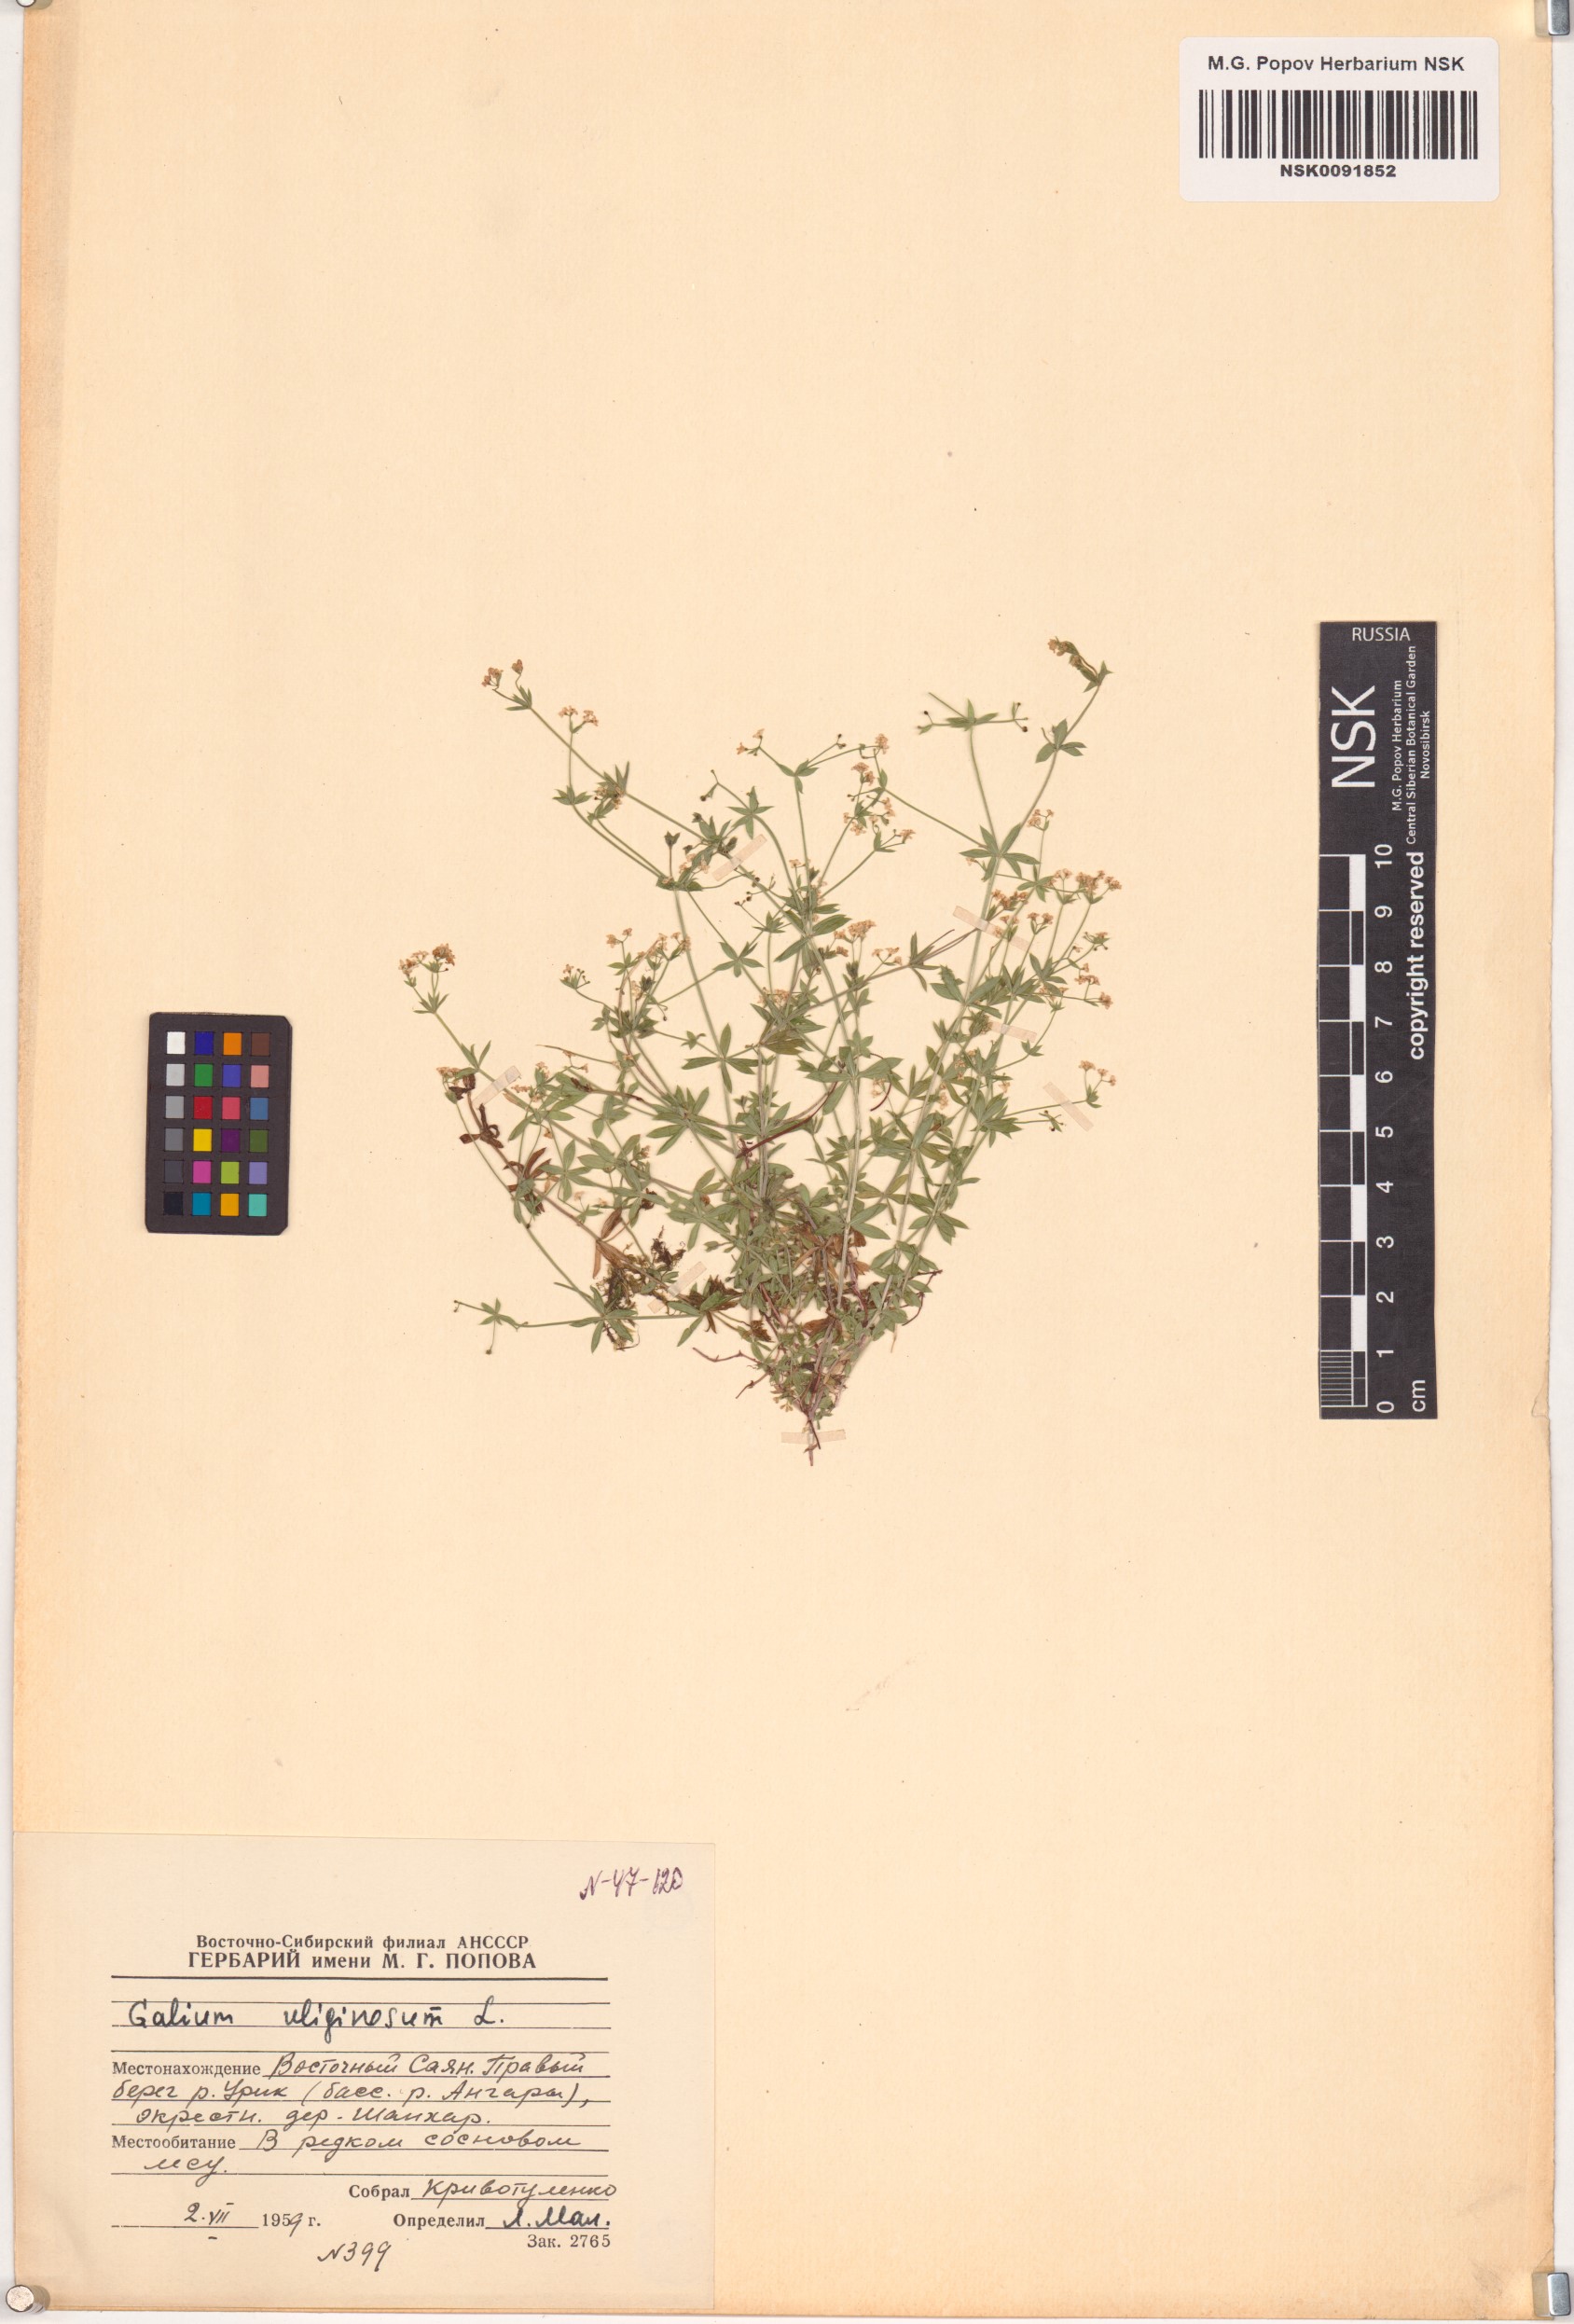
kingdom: Plantae
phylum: Tracheophyta
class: Magnoliopsida
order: Gentianales
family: Rubiaceae
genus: Galium
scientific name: Galium uliginosum
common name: Fen bedstraw
